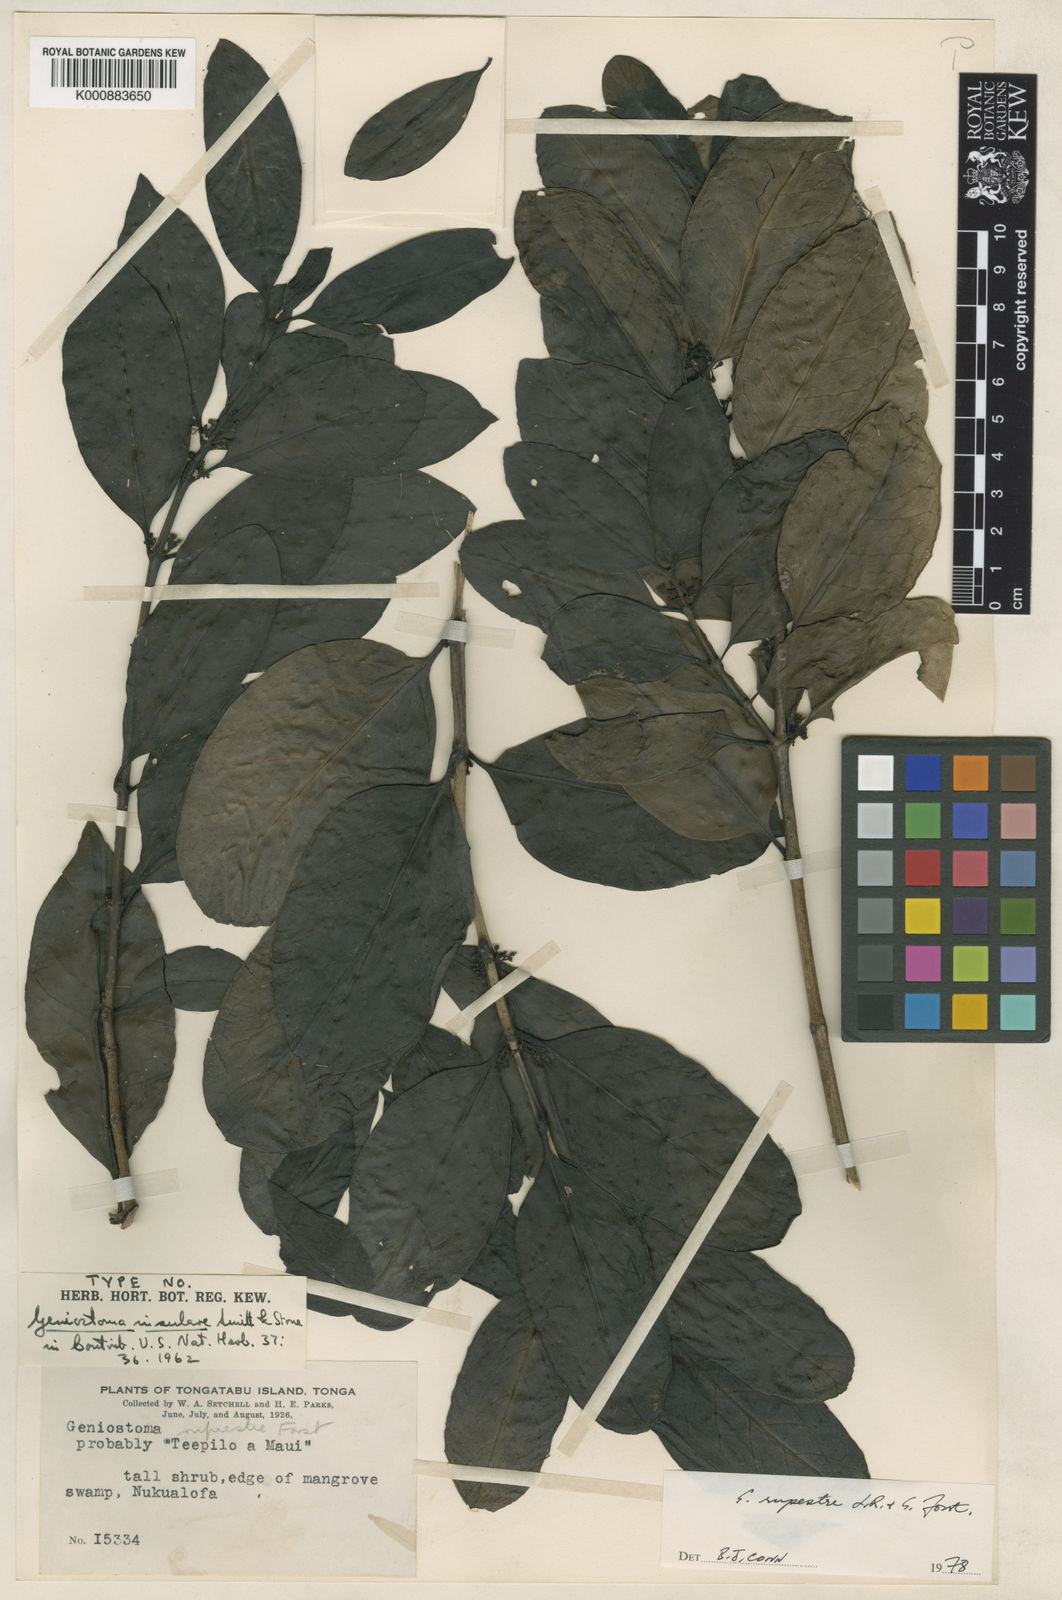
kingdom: Plantae
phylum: Tracheophyta
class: Magnoliopsida
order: Gentianales
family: Loganiaceae
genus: Geniostoma
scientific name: Geniostoma rupestre
